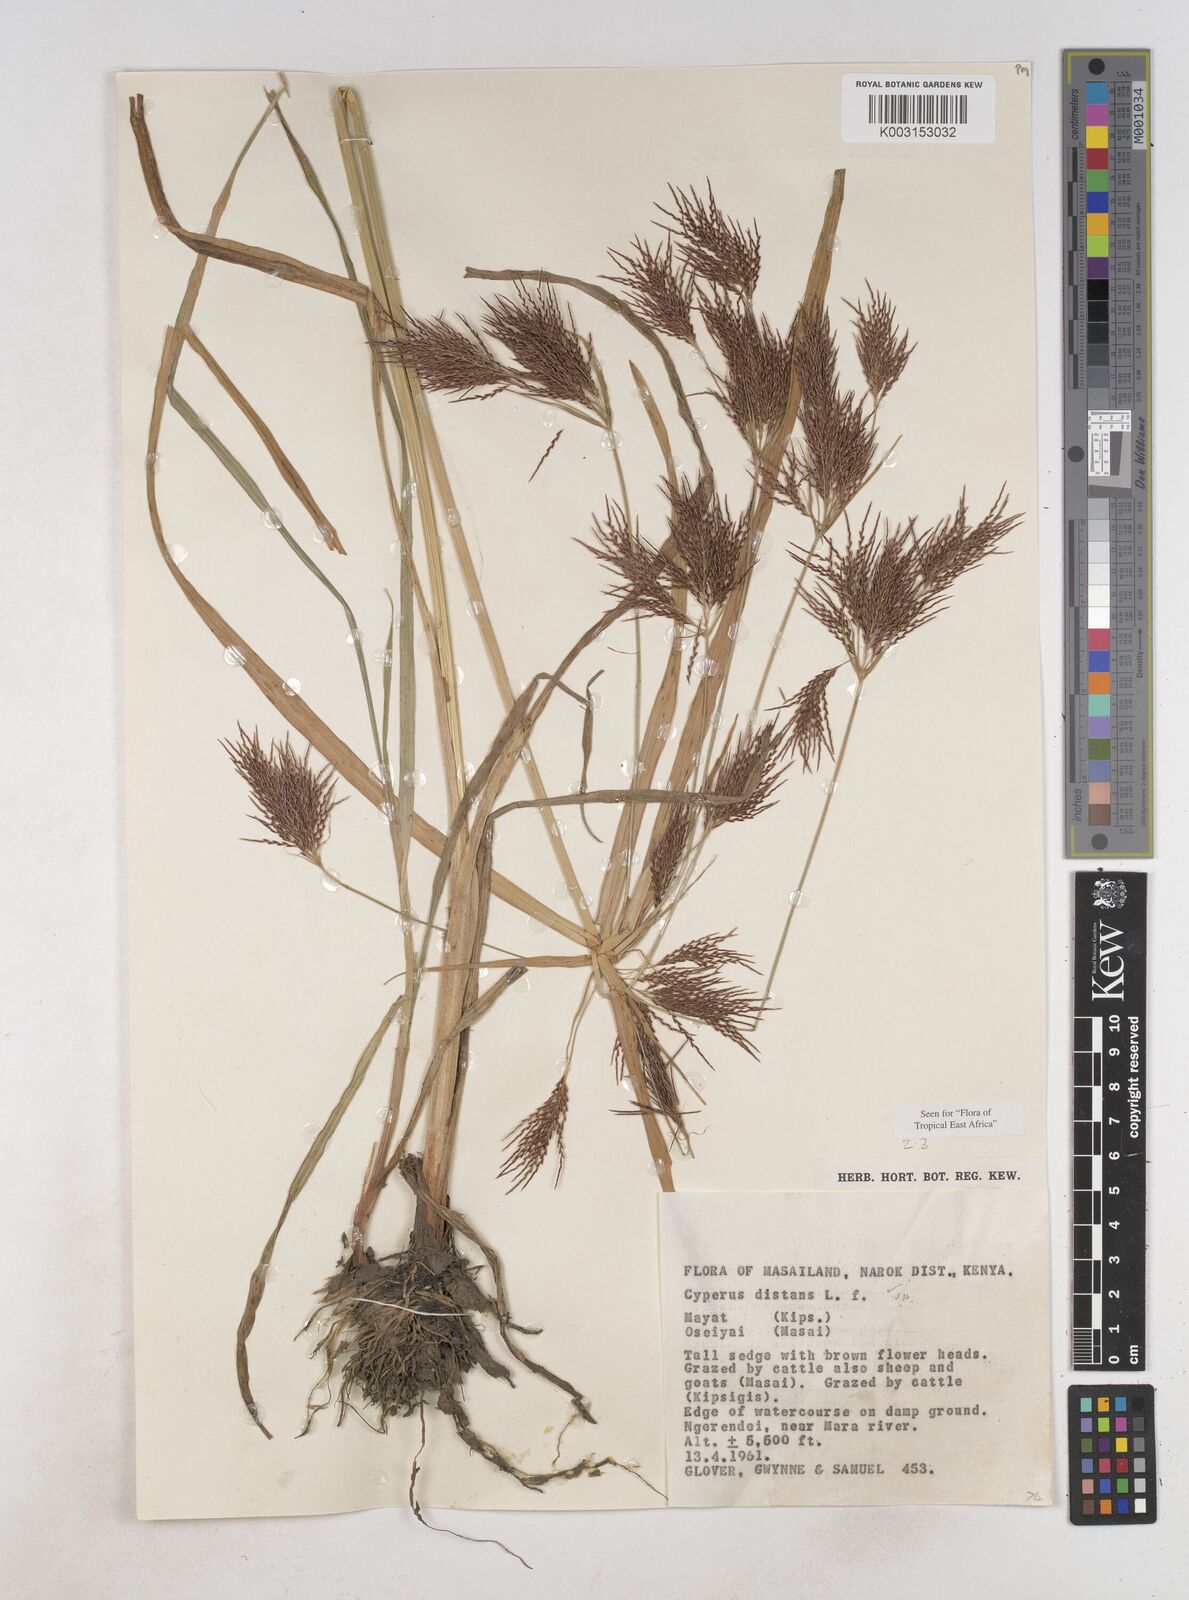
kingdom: Plantae
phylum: Tracheophyta
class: Liliopsida
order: Poales
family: Cyperaceae
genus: Cyperus
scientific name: Cyperus distans
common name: Slender cyperus
